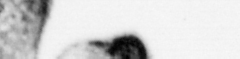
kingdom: Animalia
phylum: Chordata
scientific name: Chordata
